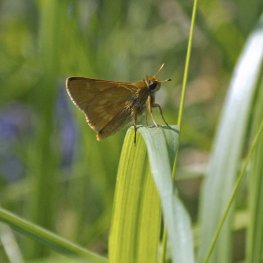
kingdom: Animalia
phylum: Arthropoda
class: Insecta
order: Lepidoptera
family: Hesperiidae
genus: Polites
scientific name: Polites
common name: Long Dash Skipper
